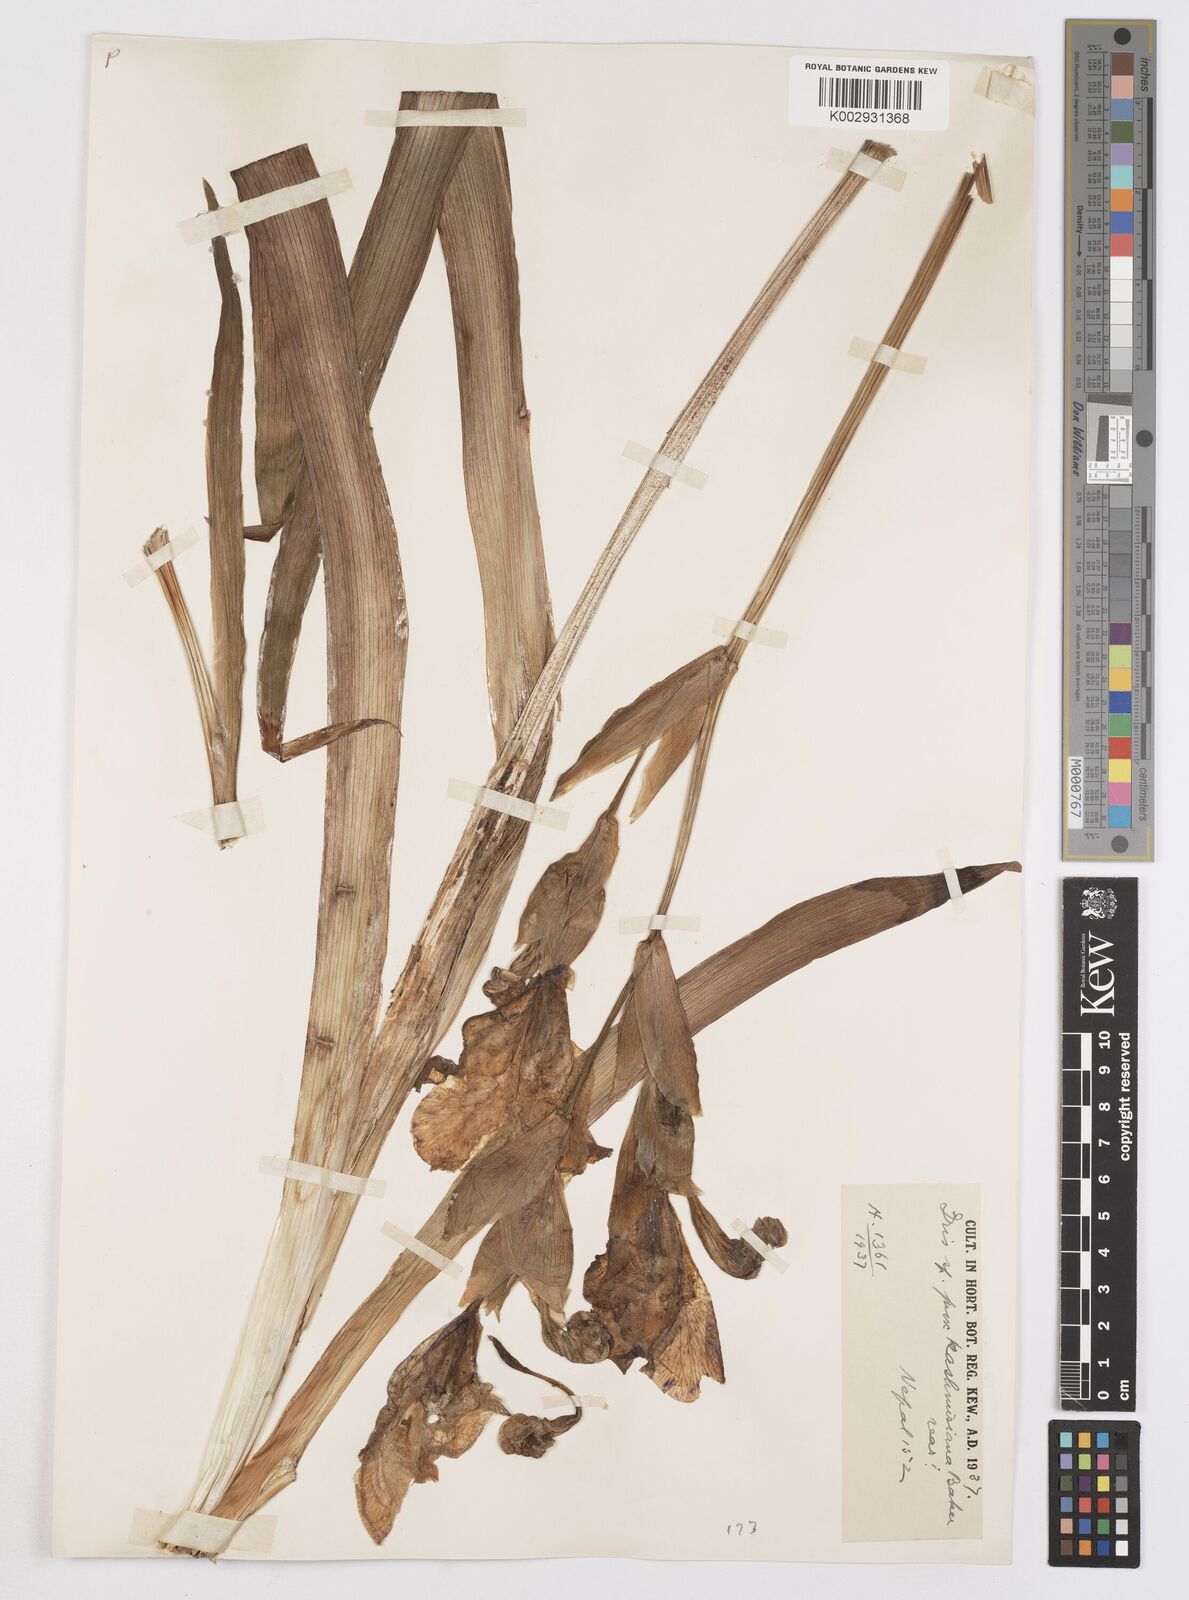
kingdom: Plantae
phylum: Tracheophyta
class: Liliopsida
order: Asparagales
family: Iridaceae
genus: Iris
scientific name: Iris kashmiriana
